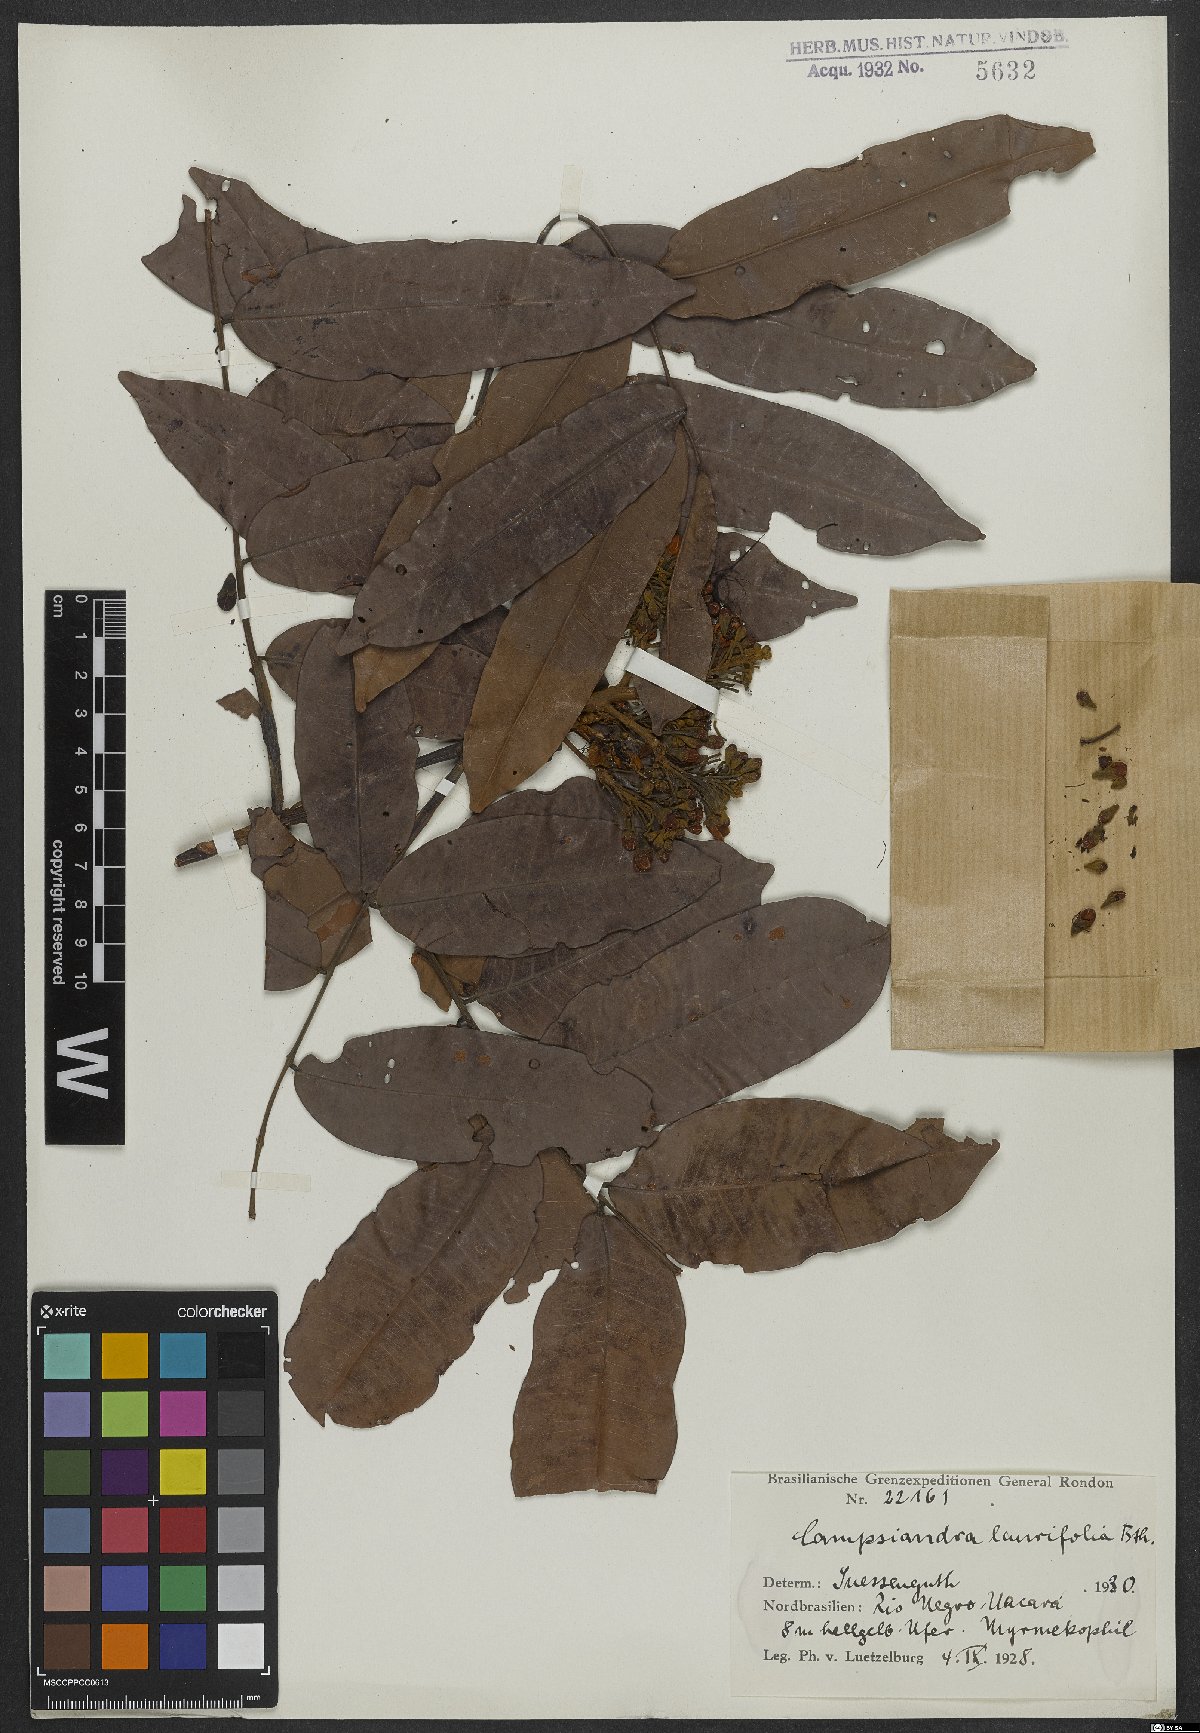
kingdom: Plantae
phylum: Tracheophyta
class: Magnoliopsida
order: Fabales
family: Fabaceae
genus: Campsiandra
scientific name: Campsiandra laurifolia
